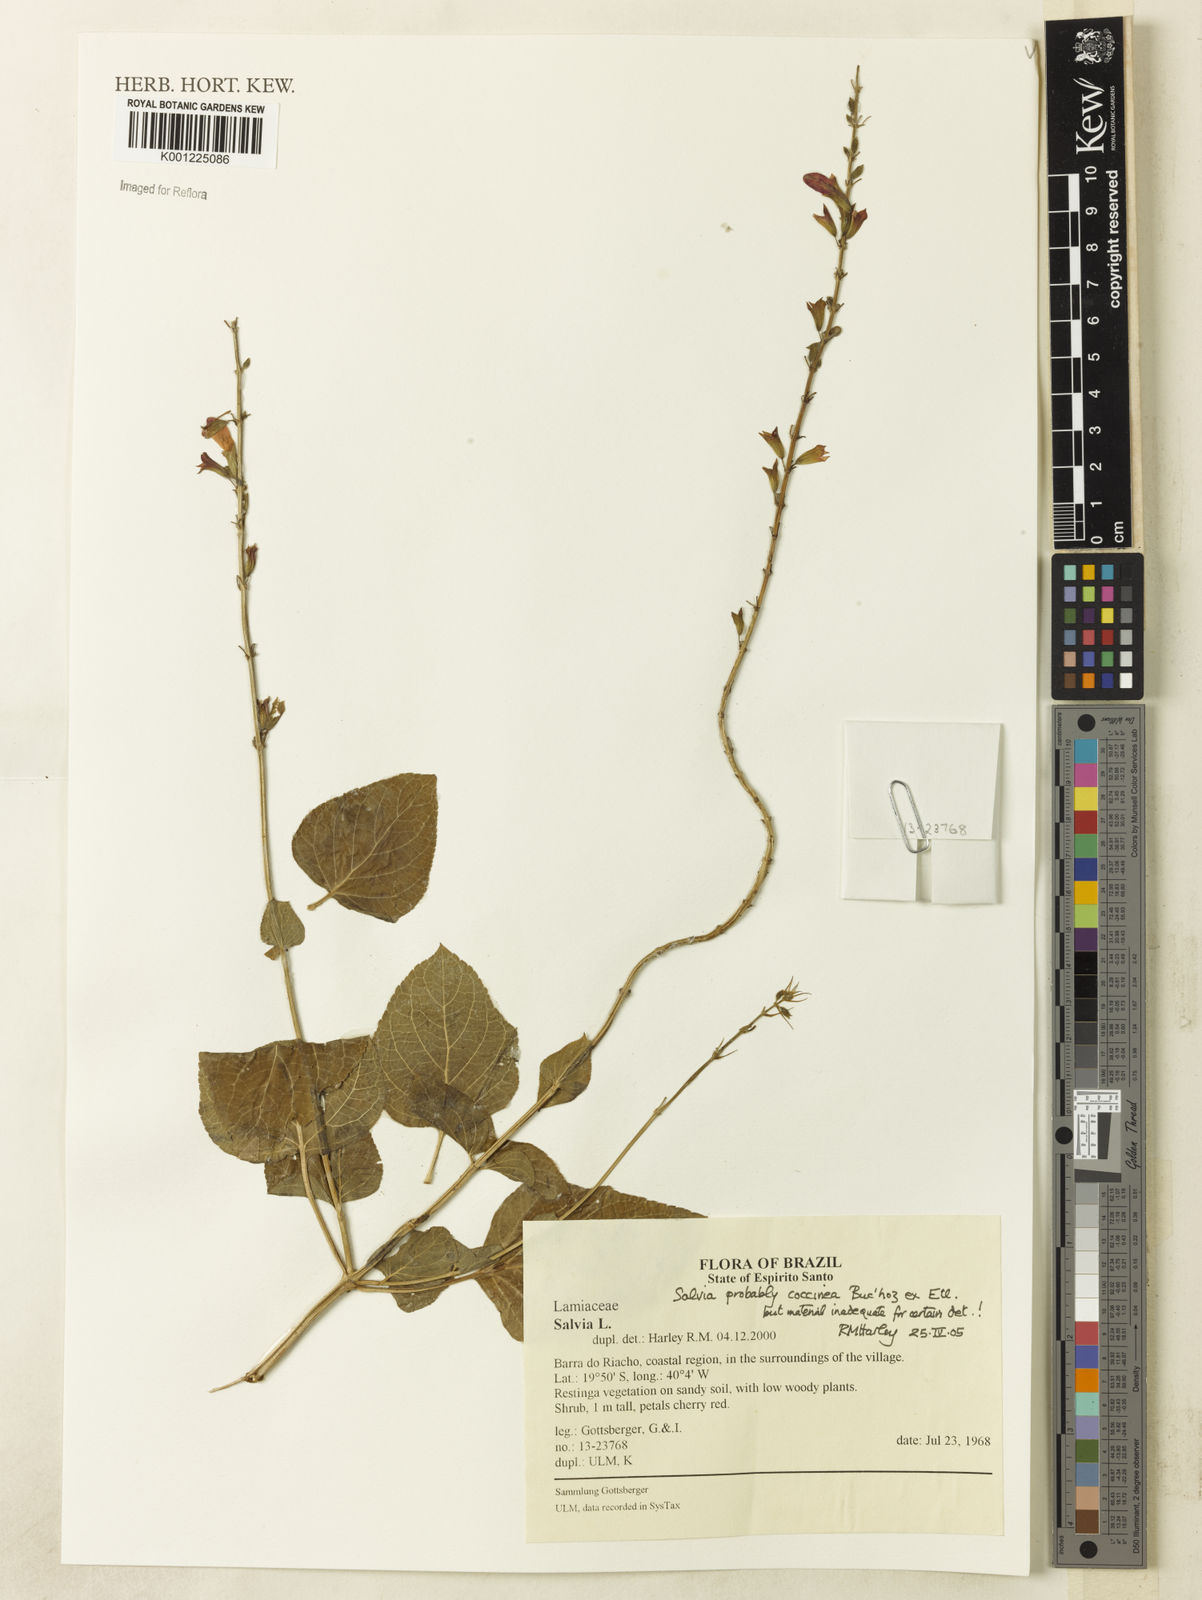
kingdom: Plantae
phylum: Tracheophyta
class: Magnoliopsida
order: Lamiales
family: Lamiaceae
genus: Salvia
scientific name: Salvia coccinea
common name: Blood sage
